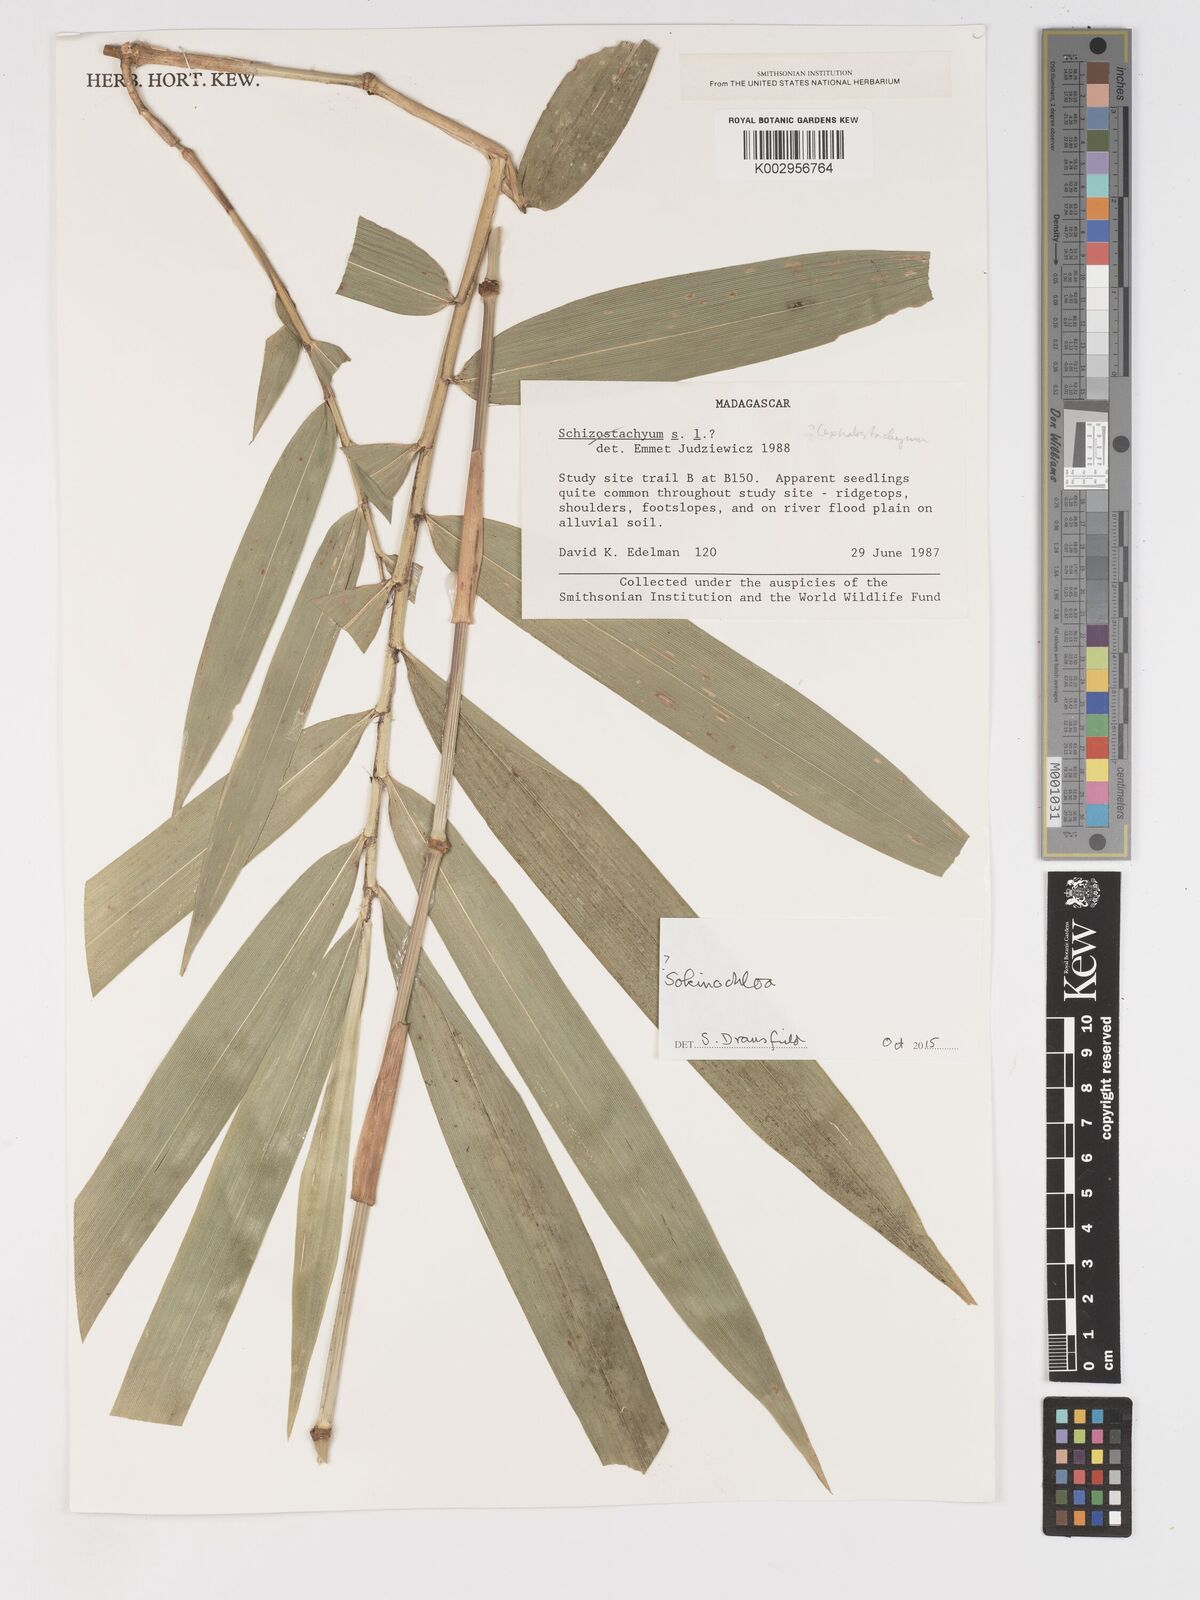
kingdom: Plantae
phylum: Tracheophyta
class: Liliopsida
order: Poales
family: Poaceae
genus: Sokinochloa
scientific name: Sokinochloa
